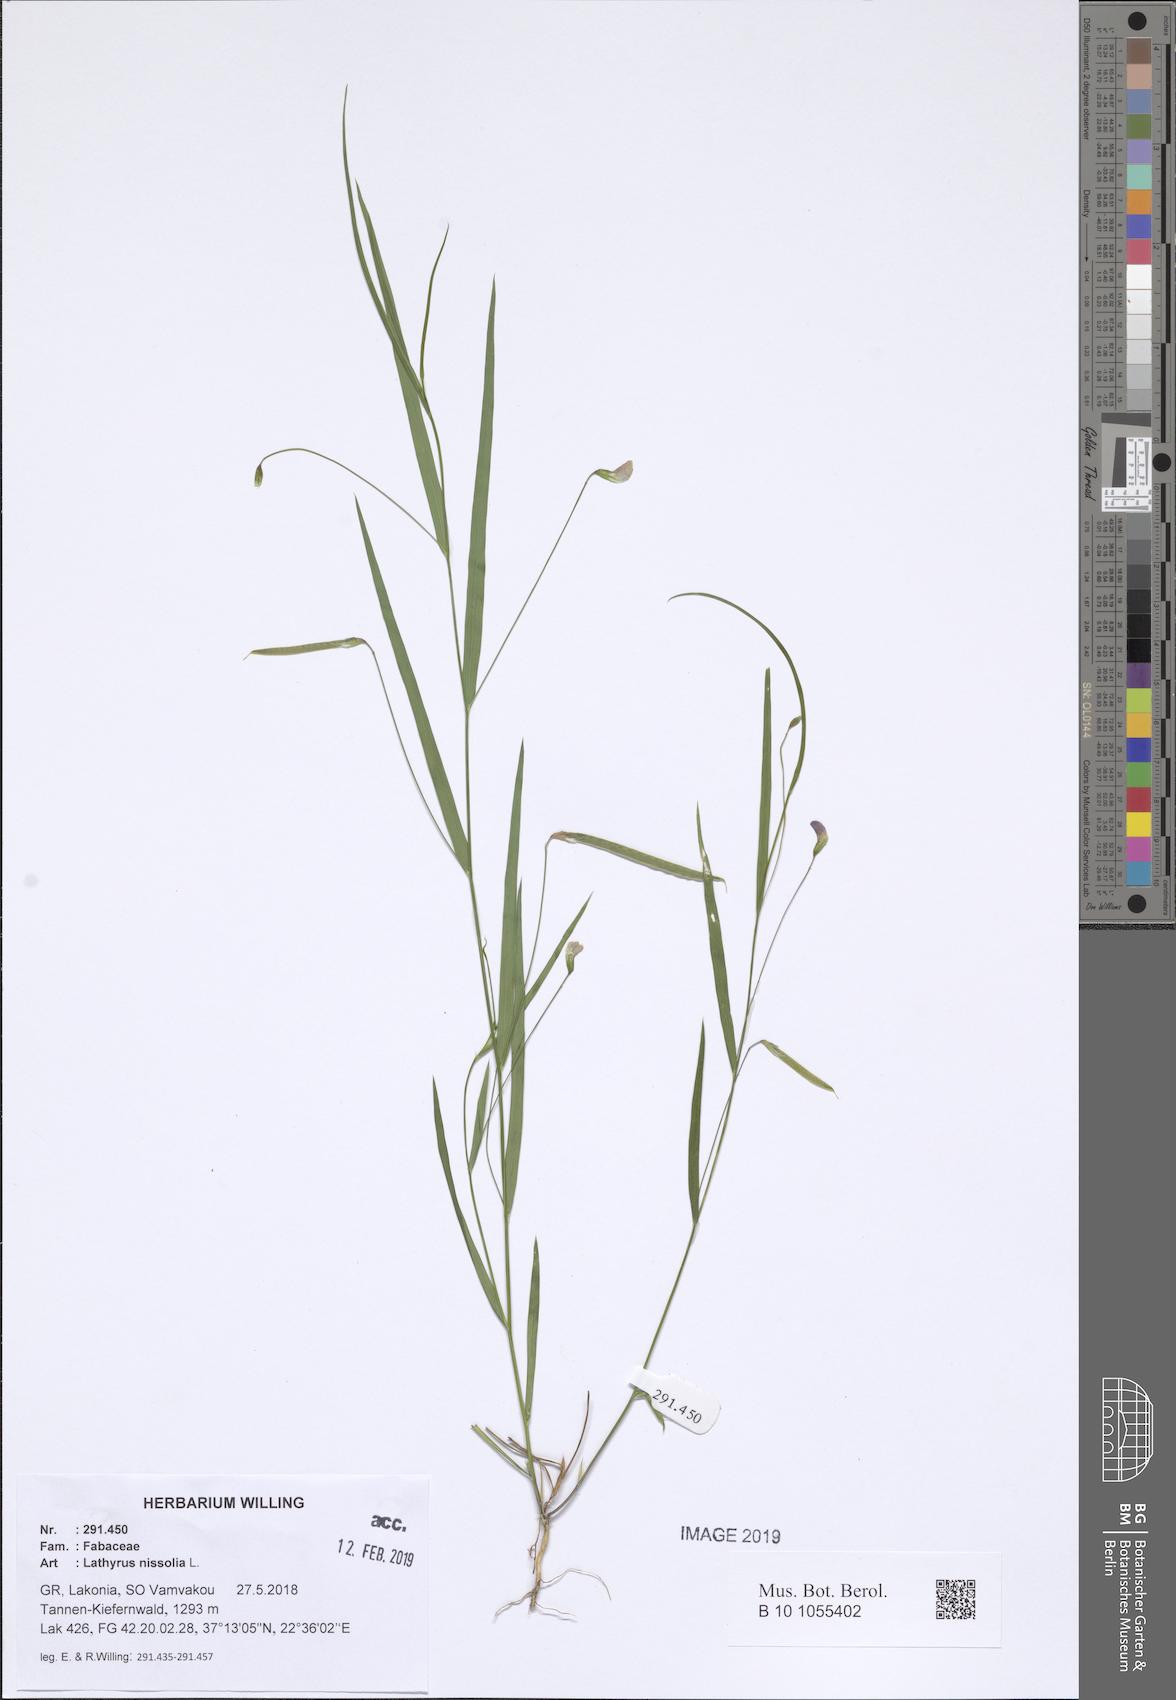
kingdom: Plantae
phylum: Tracheophyta
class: Magnoliopsida
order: Fabales
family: Fabaceae
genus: Lathyrus
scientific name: Lathyrus nissolia
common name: Grass vetchling
